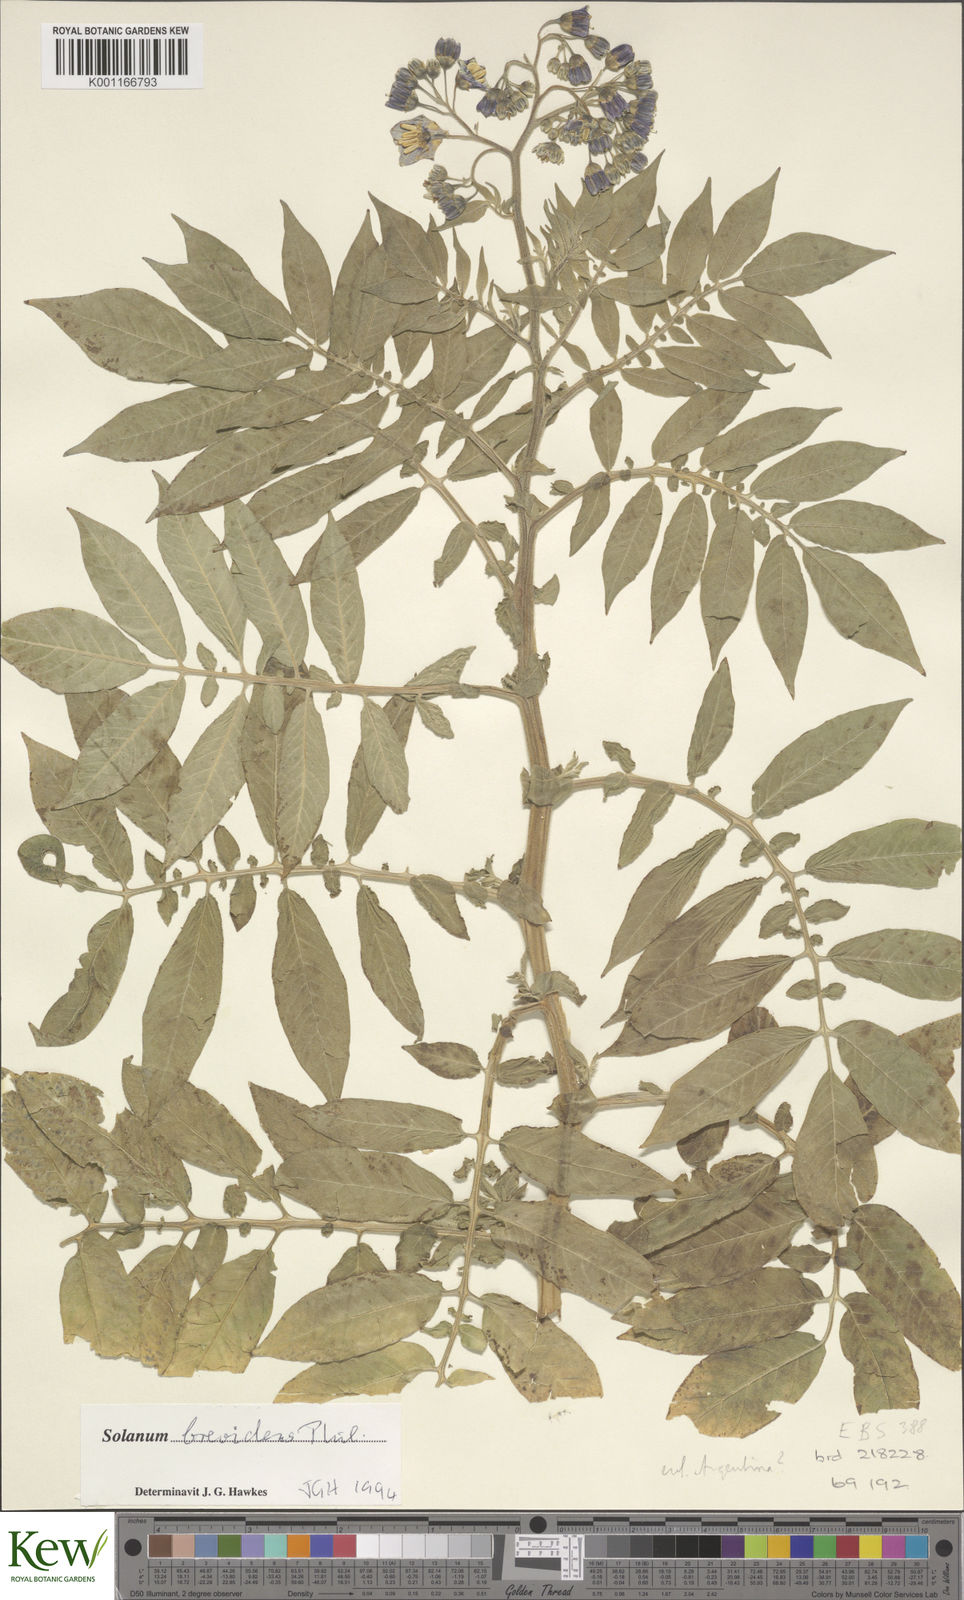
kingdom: Plantae
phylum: Tracheophyta
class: Magnoliopsida
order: Solanales
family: Solanaceae
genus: Solanum
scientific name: Solanum palustre
